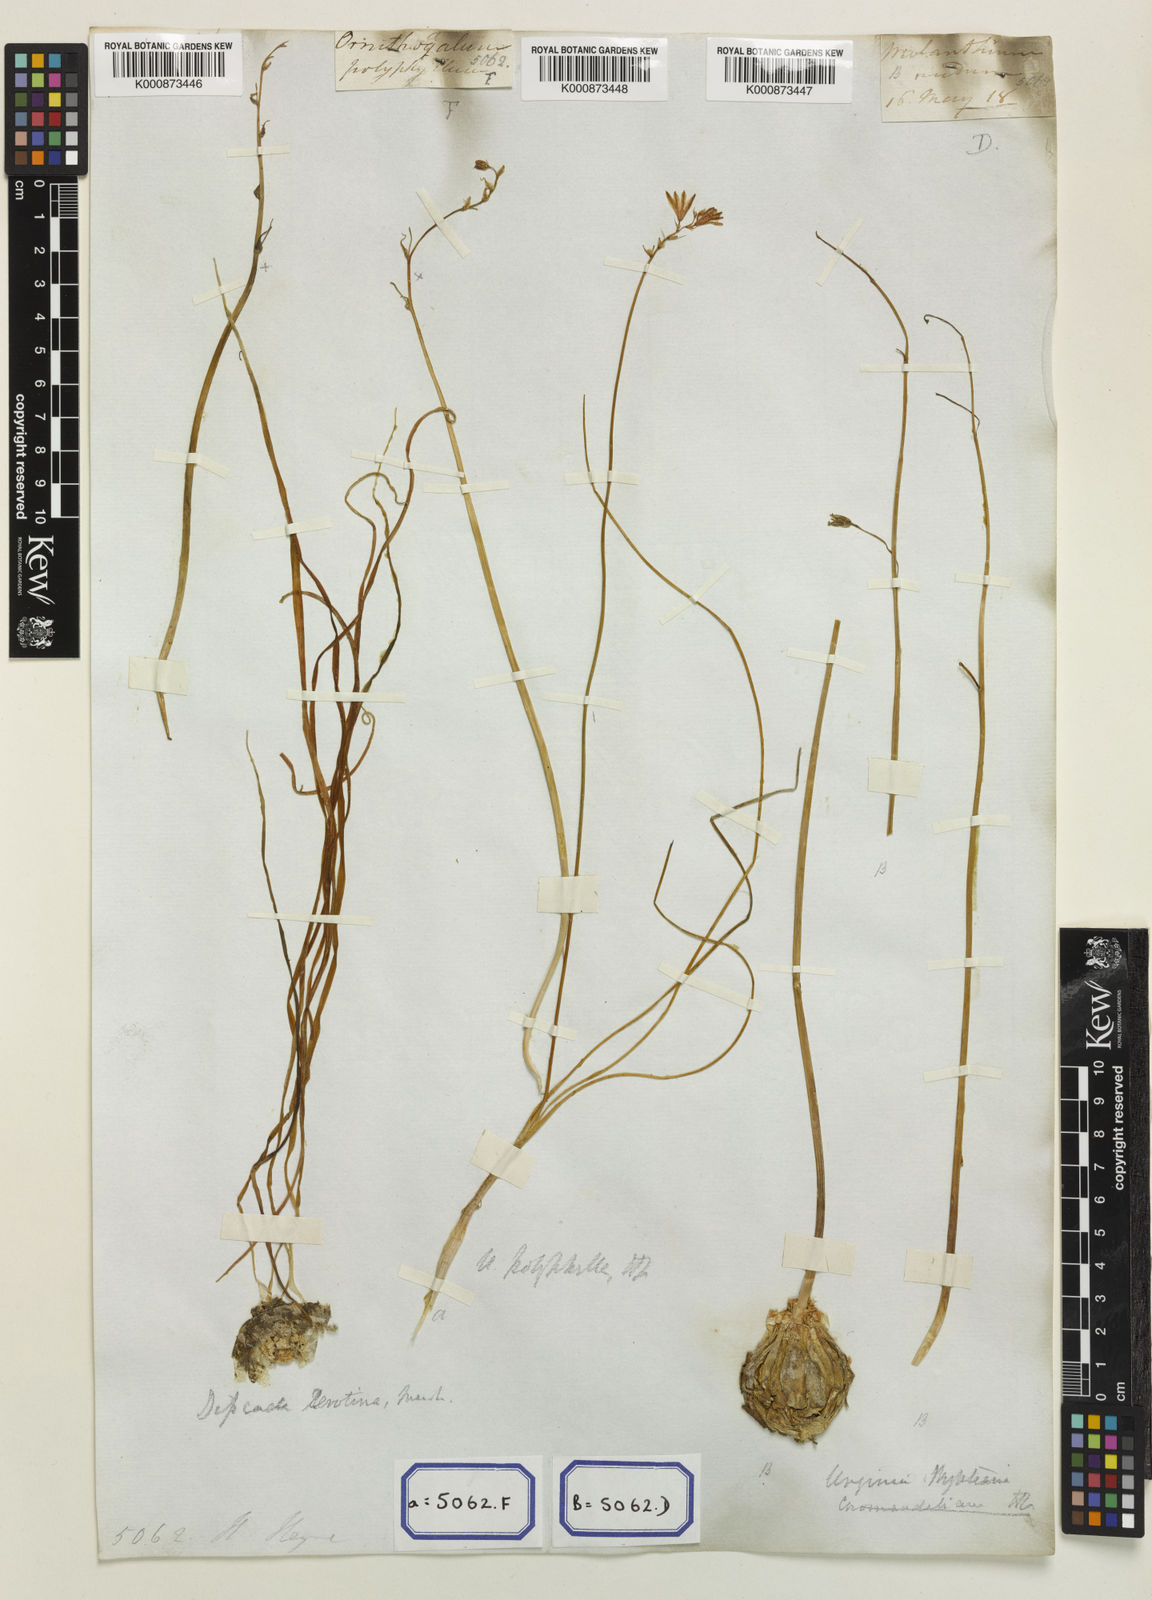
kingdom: Plantae
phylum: Tracheophyta
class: Liliopsida
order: Asparagales
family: Asparagaceae
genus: Drimia
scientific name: Drimia indica
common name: Indian-squill
